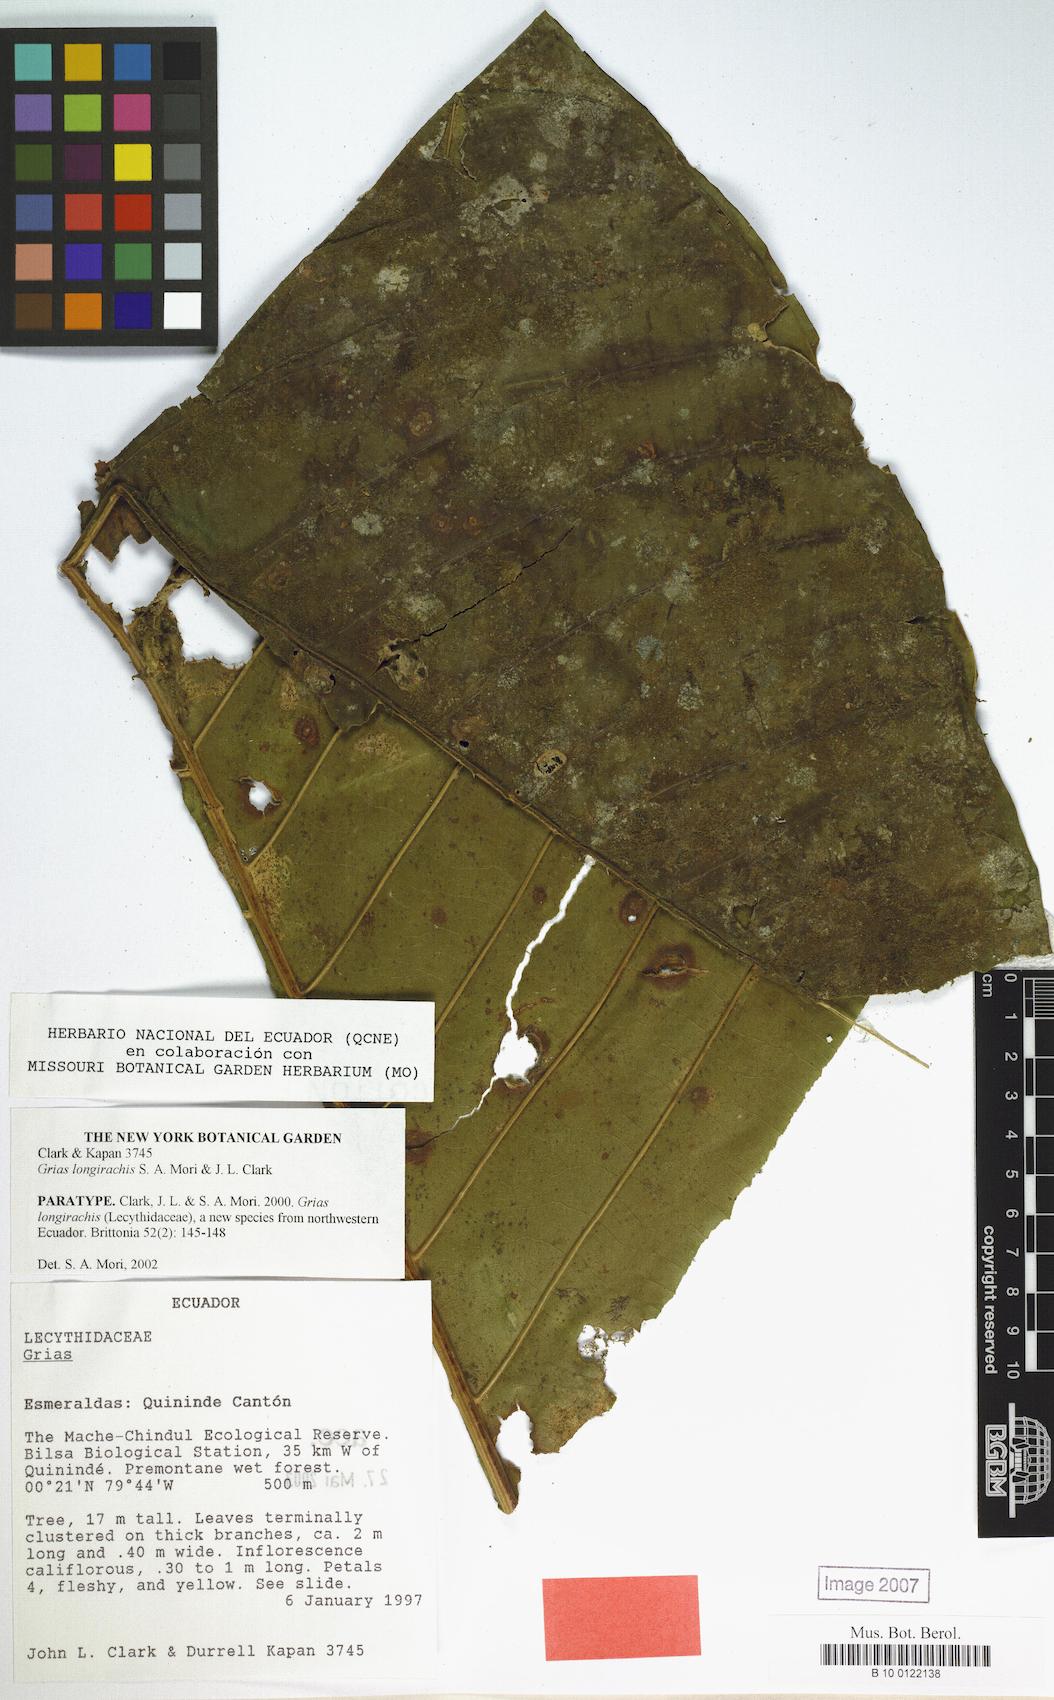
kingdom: Plantae
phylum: Tracheophyta
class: Magnoliopsida
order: Ericales
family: Lecythidaceae
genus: Grias
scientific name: Grias longirachis
